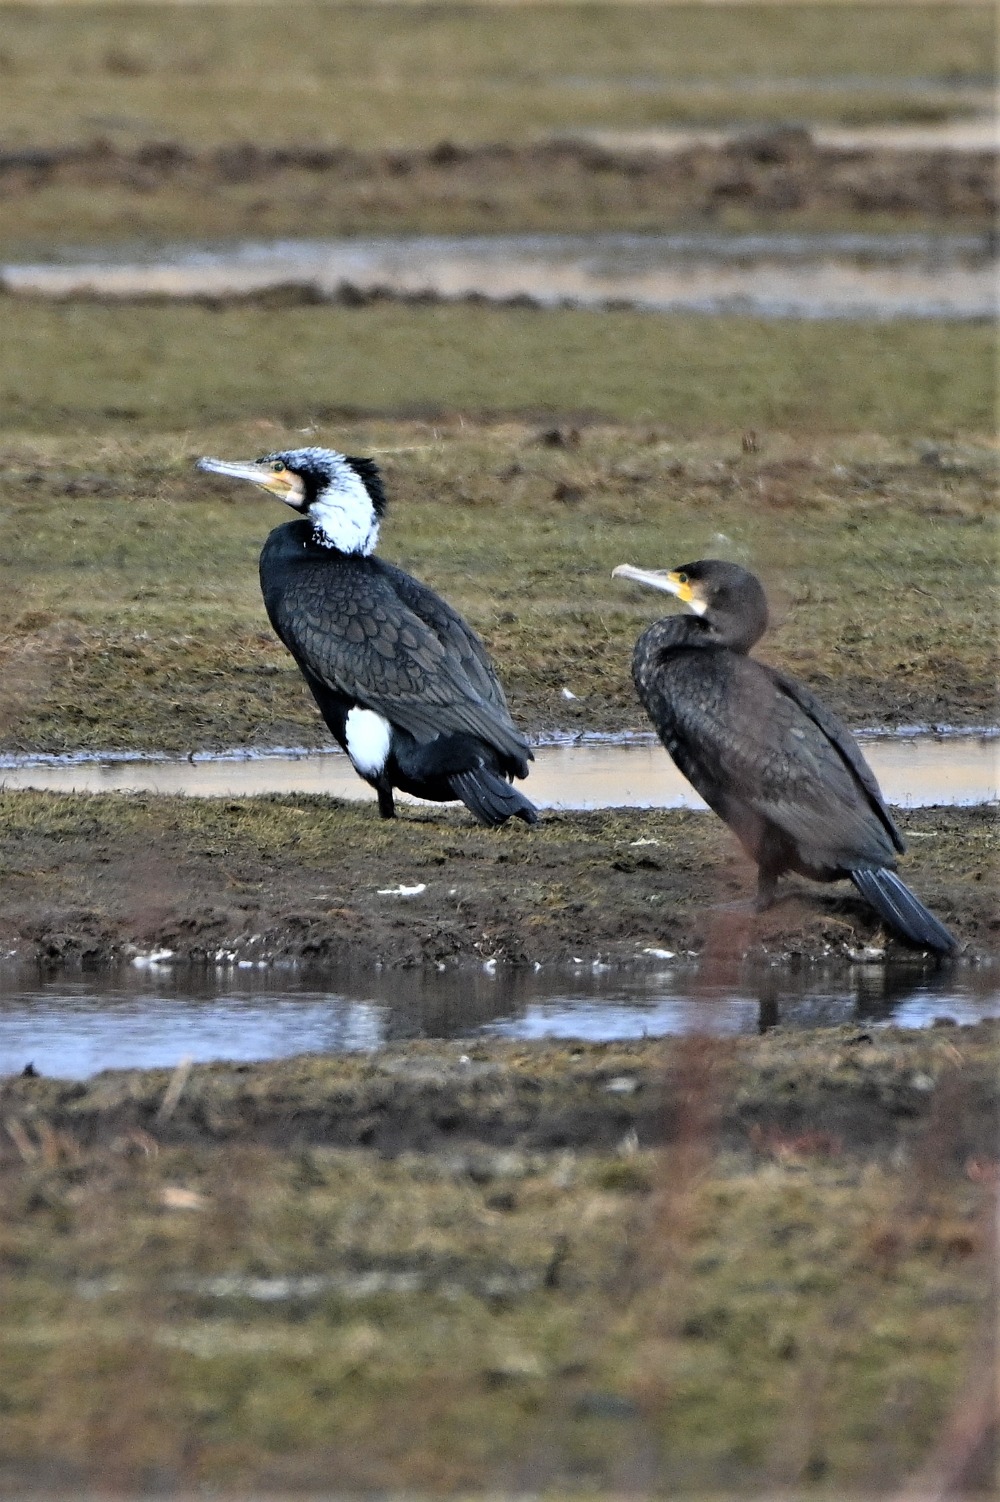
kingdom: Animalia
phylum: Chordata
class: Aves
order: Suliformes
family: Phalacrocoracidae
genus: Phalacrocorax
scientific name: Phalacrocorax carbo
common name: Skarv
